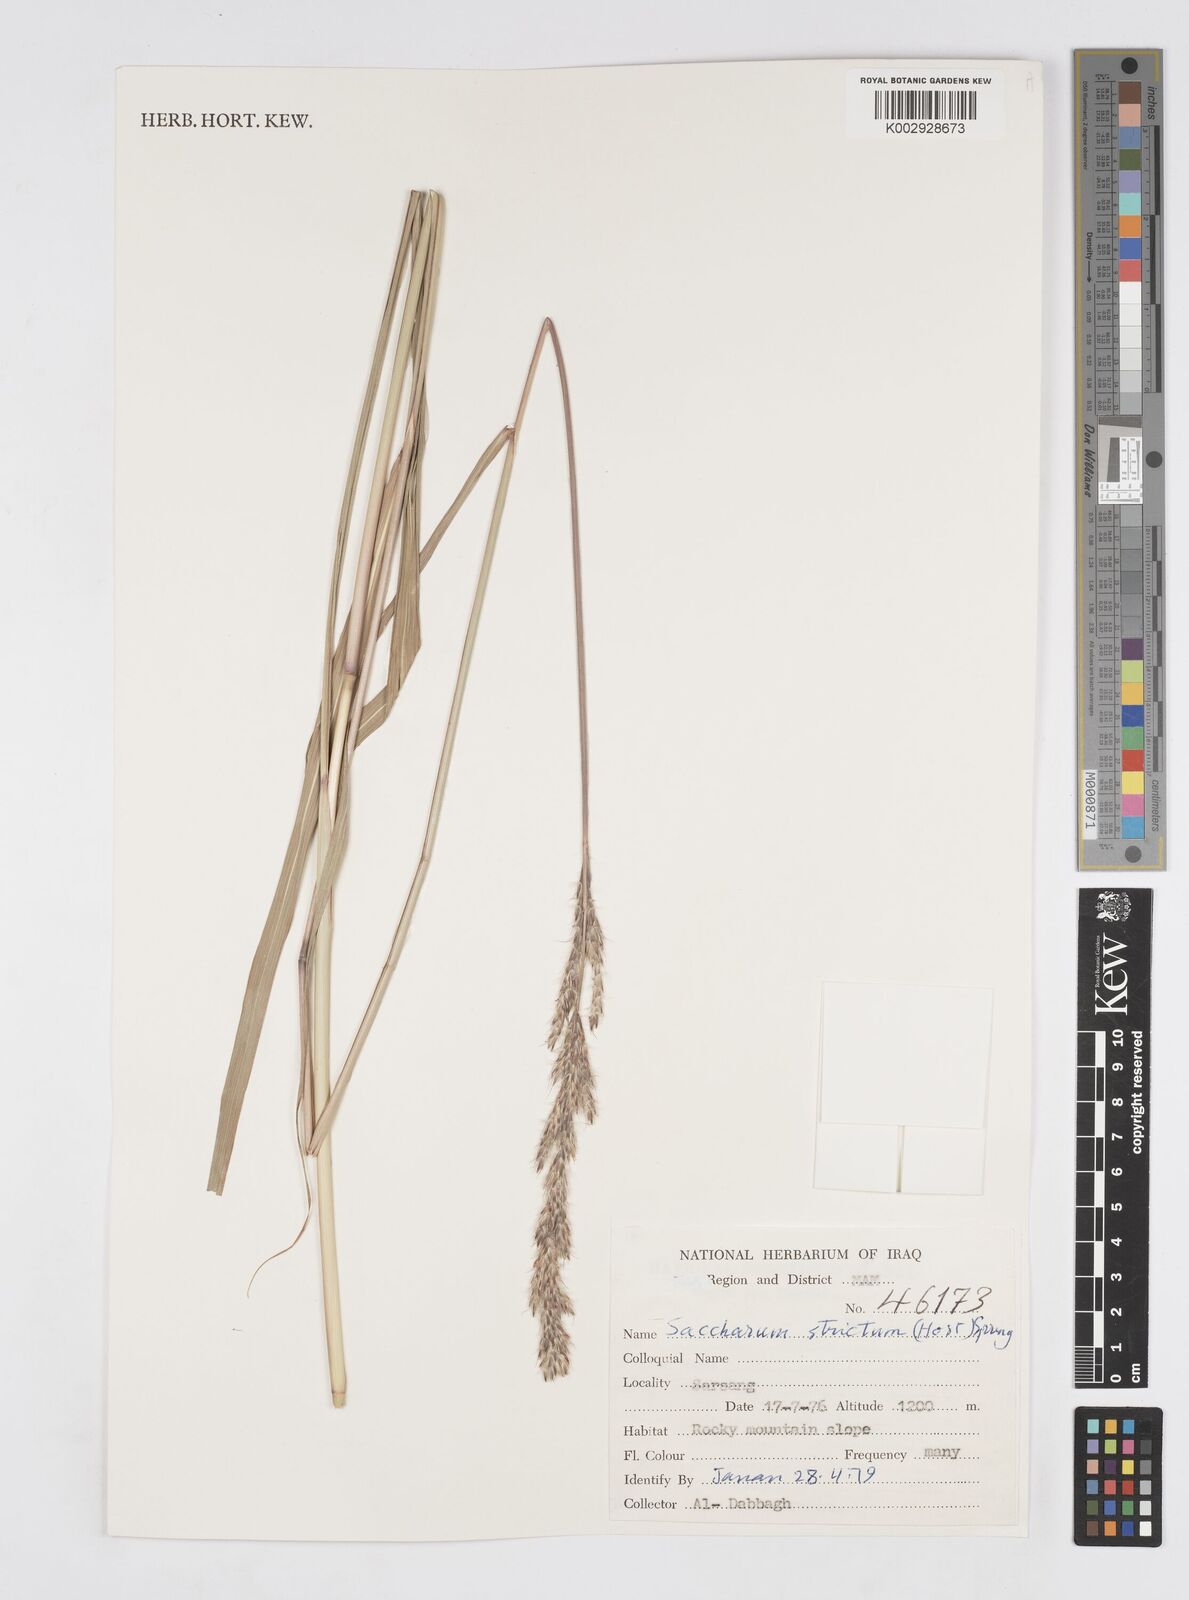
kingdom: Plantae
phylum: Tracheophyta
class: Liliopsida
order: Poales
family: Poaceae
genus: Tripidium
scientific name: Tripidium strictum
